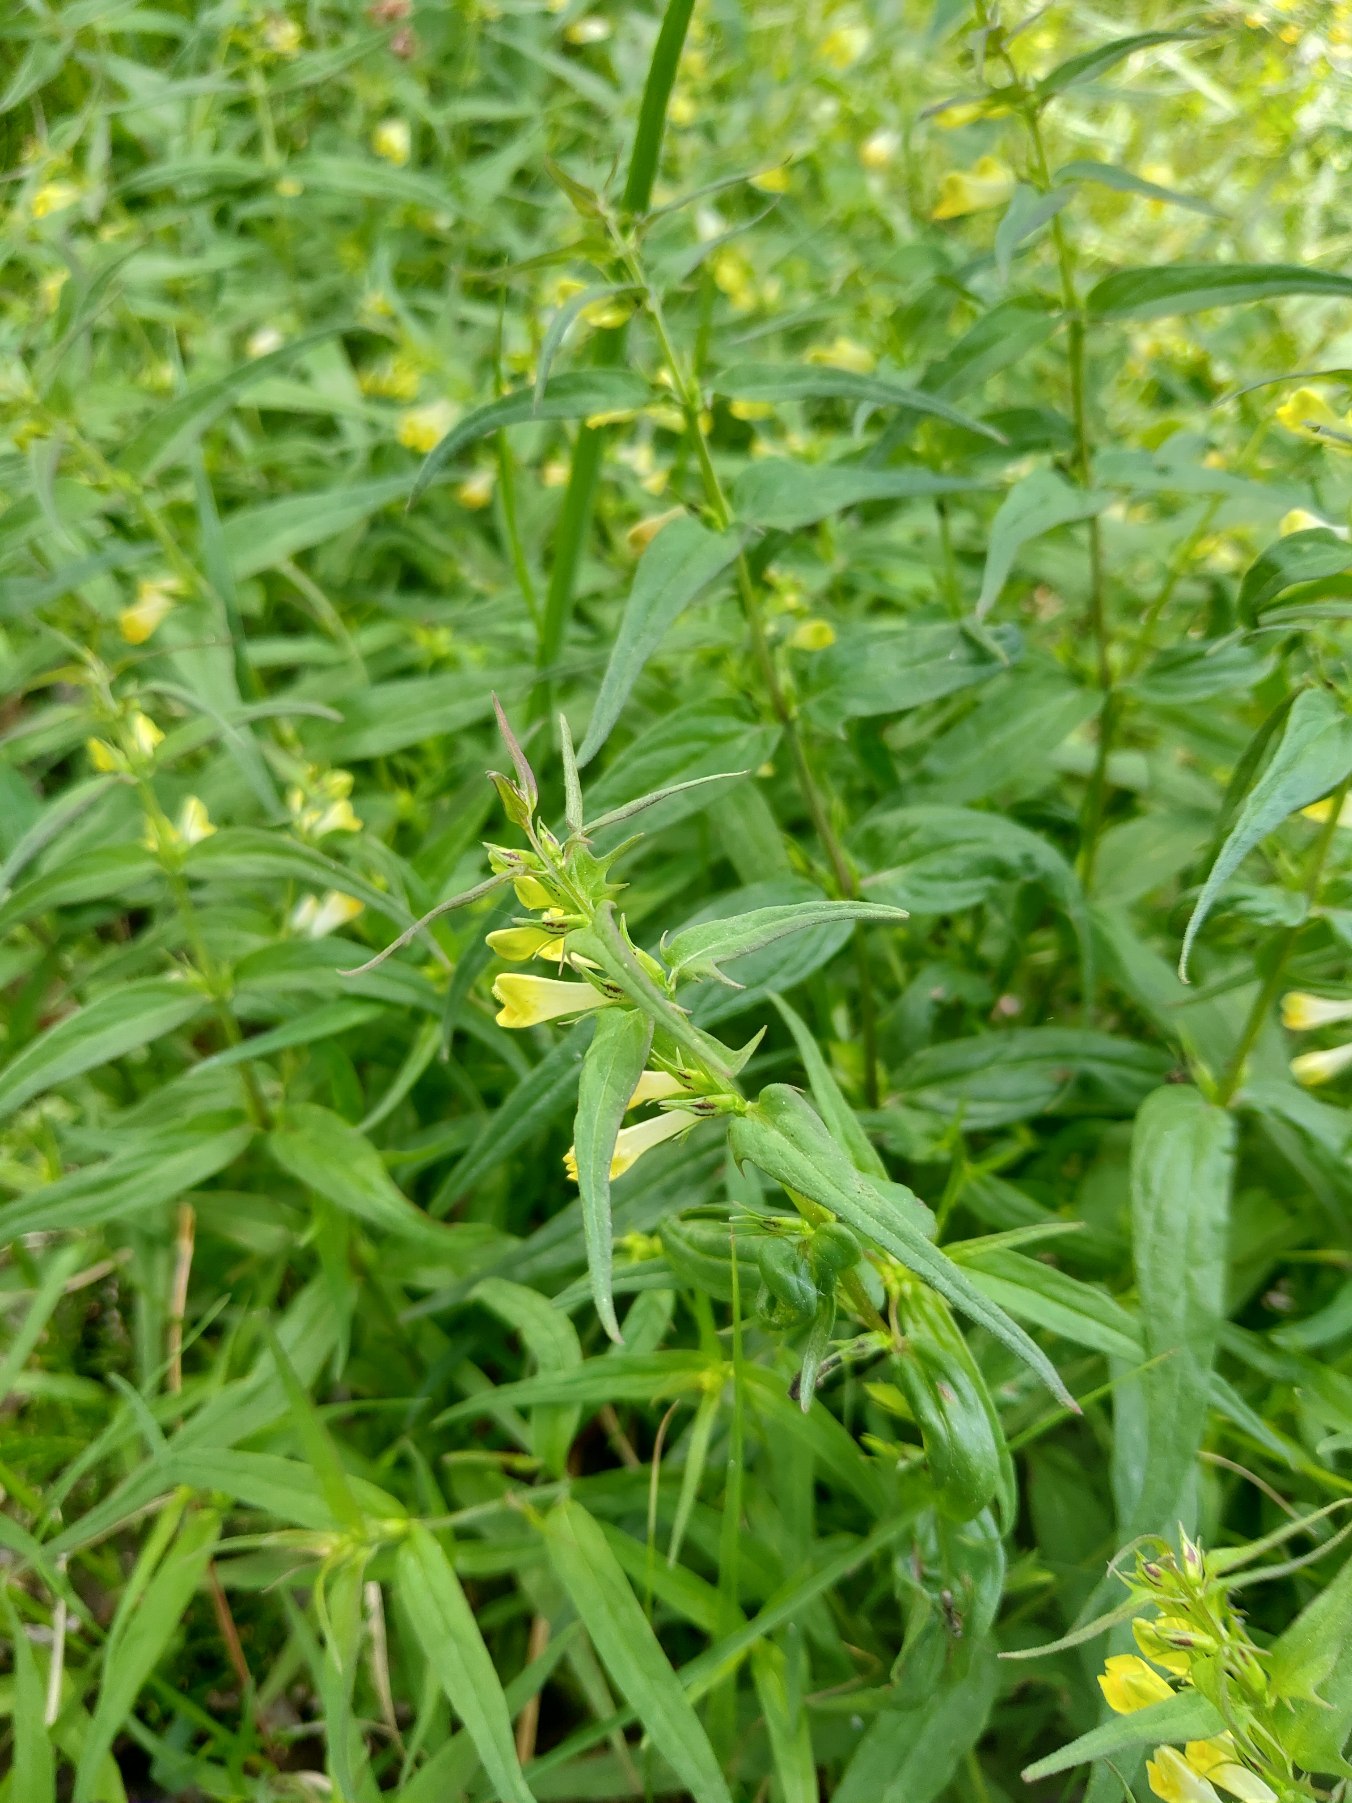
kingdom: Plantae
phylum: Tracheophyta
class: Magnoliopsida
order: Lamiales
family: Orobanchaceae
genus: Melampyrum
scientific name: Melampyrum pratense
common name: Almindelig kohvede
